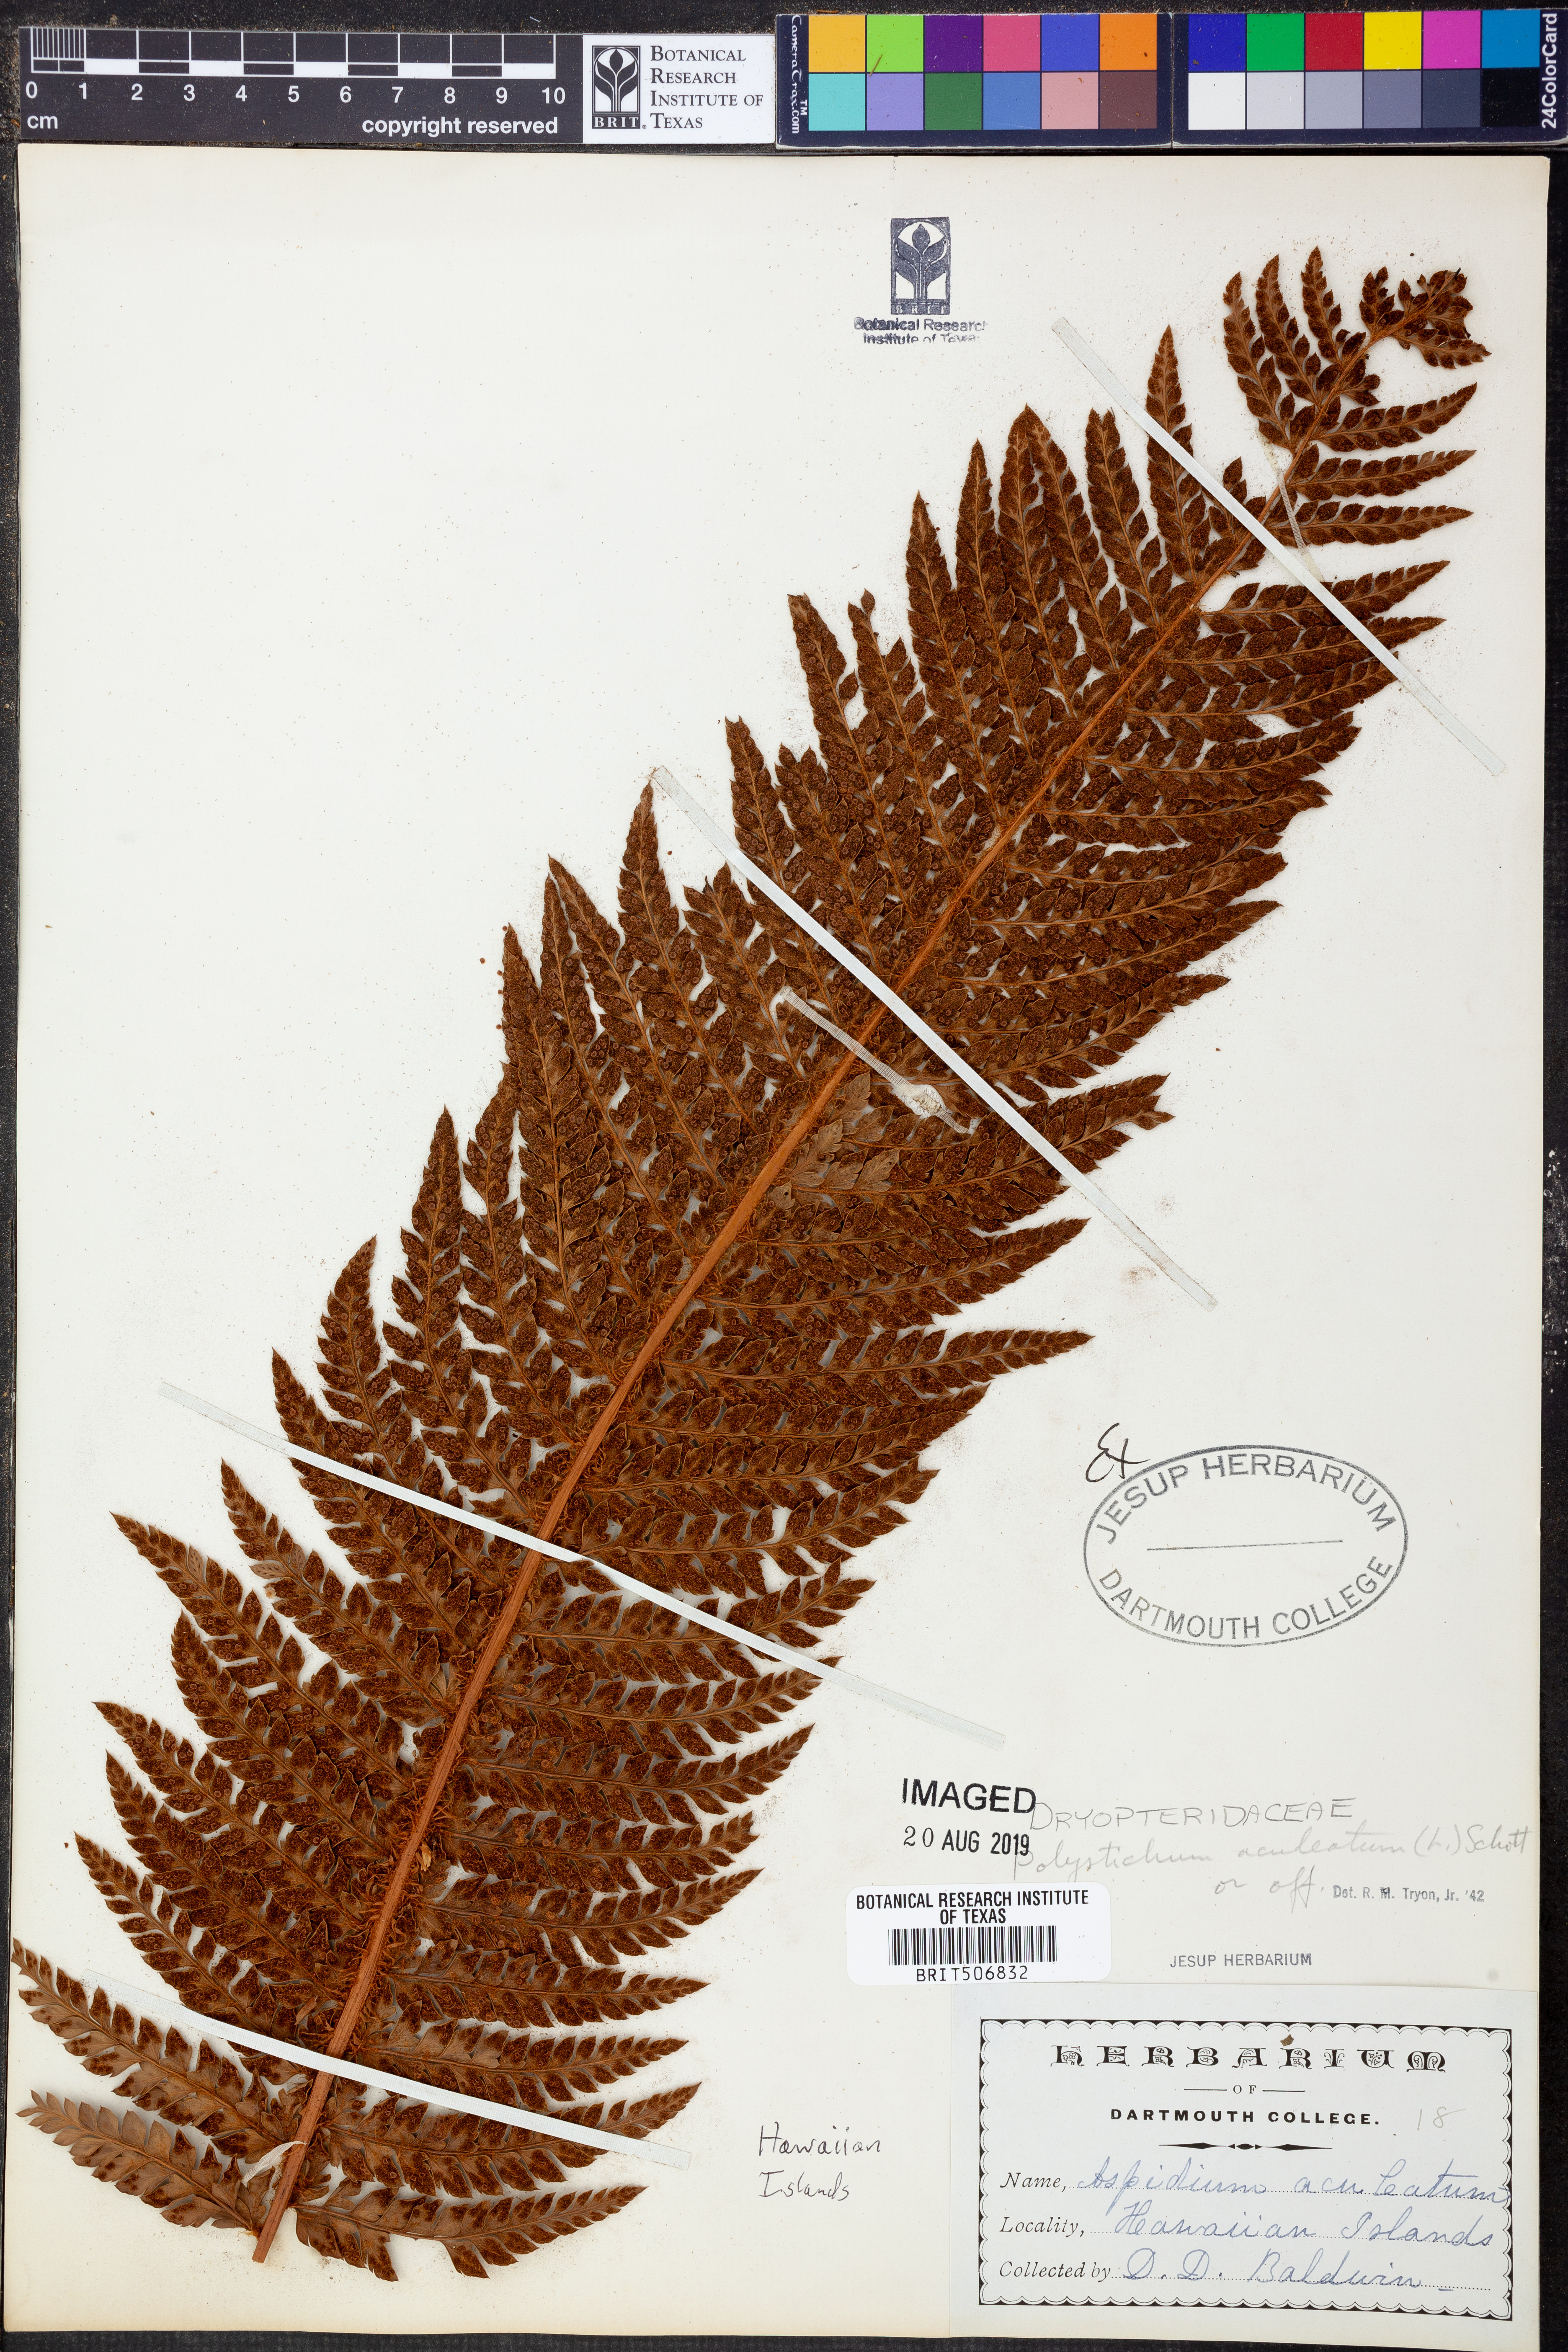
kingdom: Plantae
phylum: Tracheophyta
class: Polypodiopsida
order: Polypodiales
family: Dryopteridaceae
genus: Polystichum
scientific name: Polystichum aculeatum
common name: Hard shield-fern
